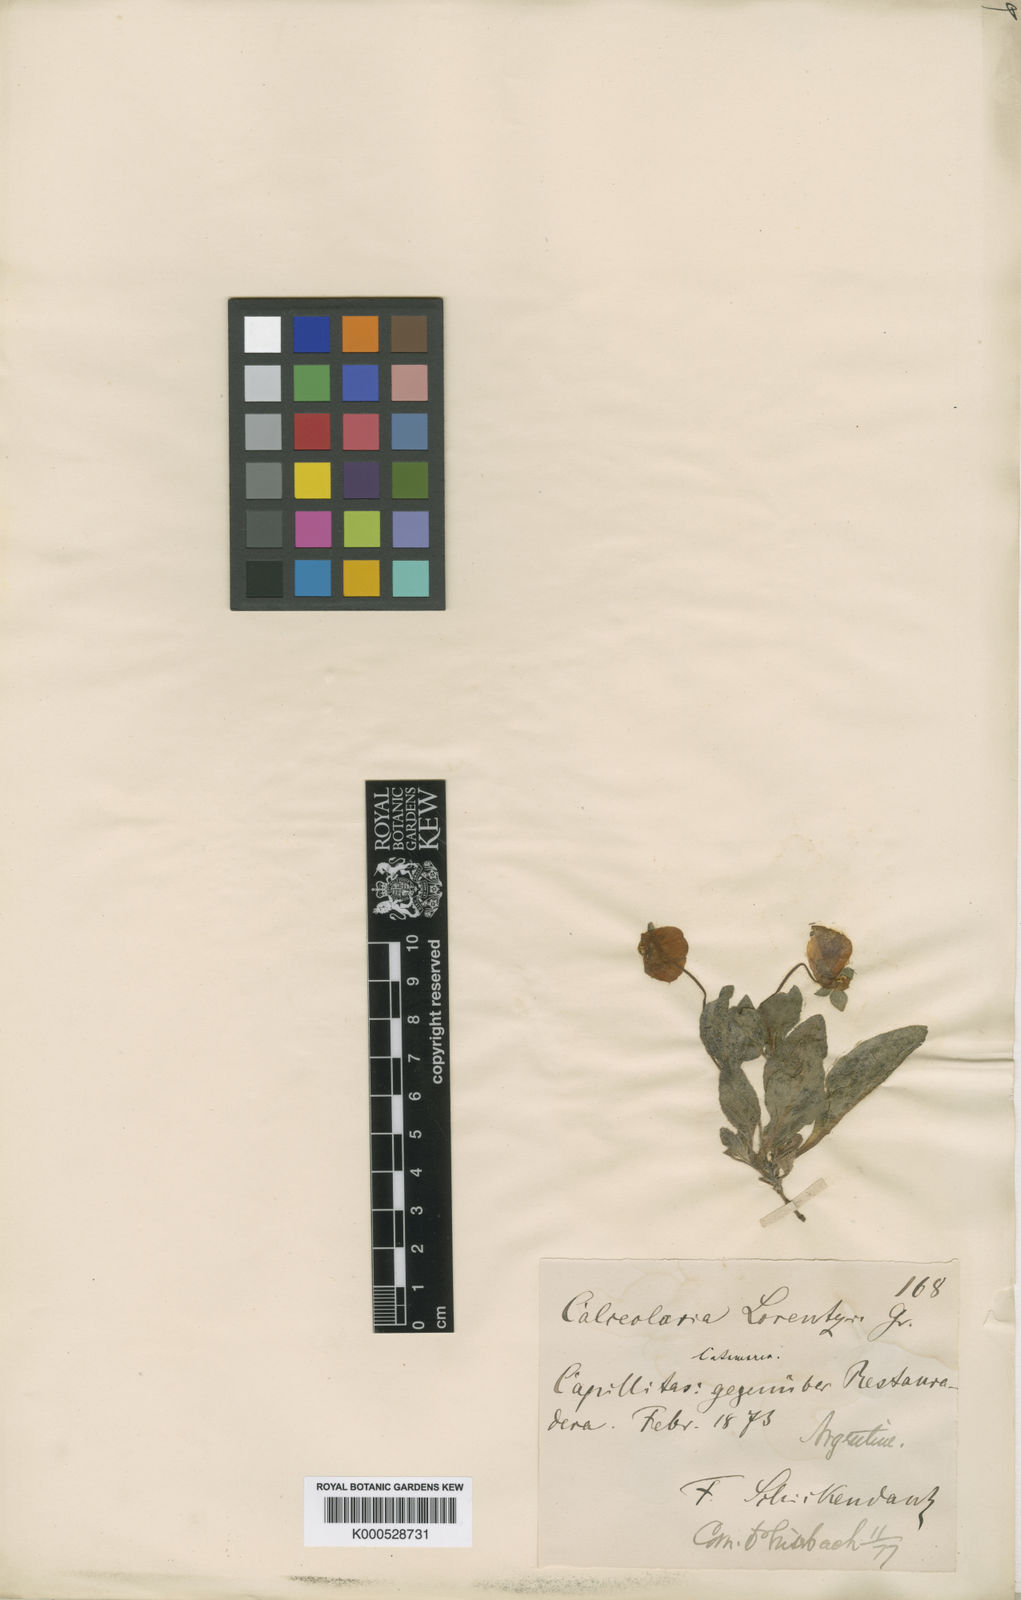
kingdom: Plantae
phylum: Tracheophyta
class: Magnoliopsida
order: Lamiales
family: Calceolariaceae
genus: Calceolaria
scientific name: Calceolaria umbellata
